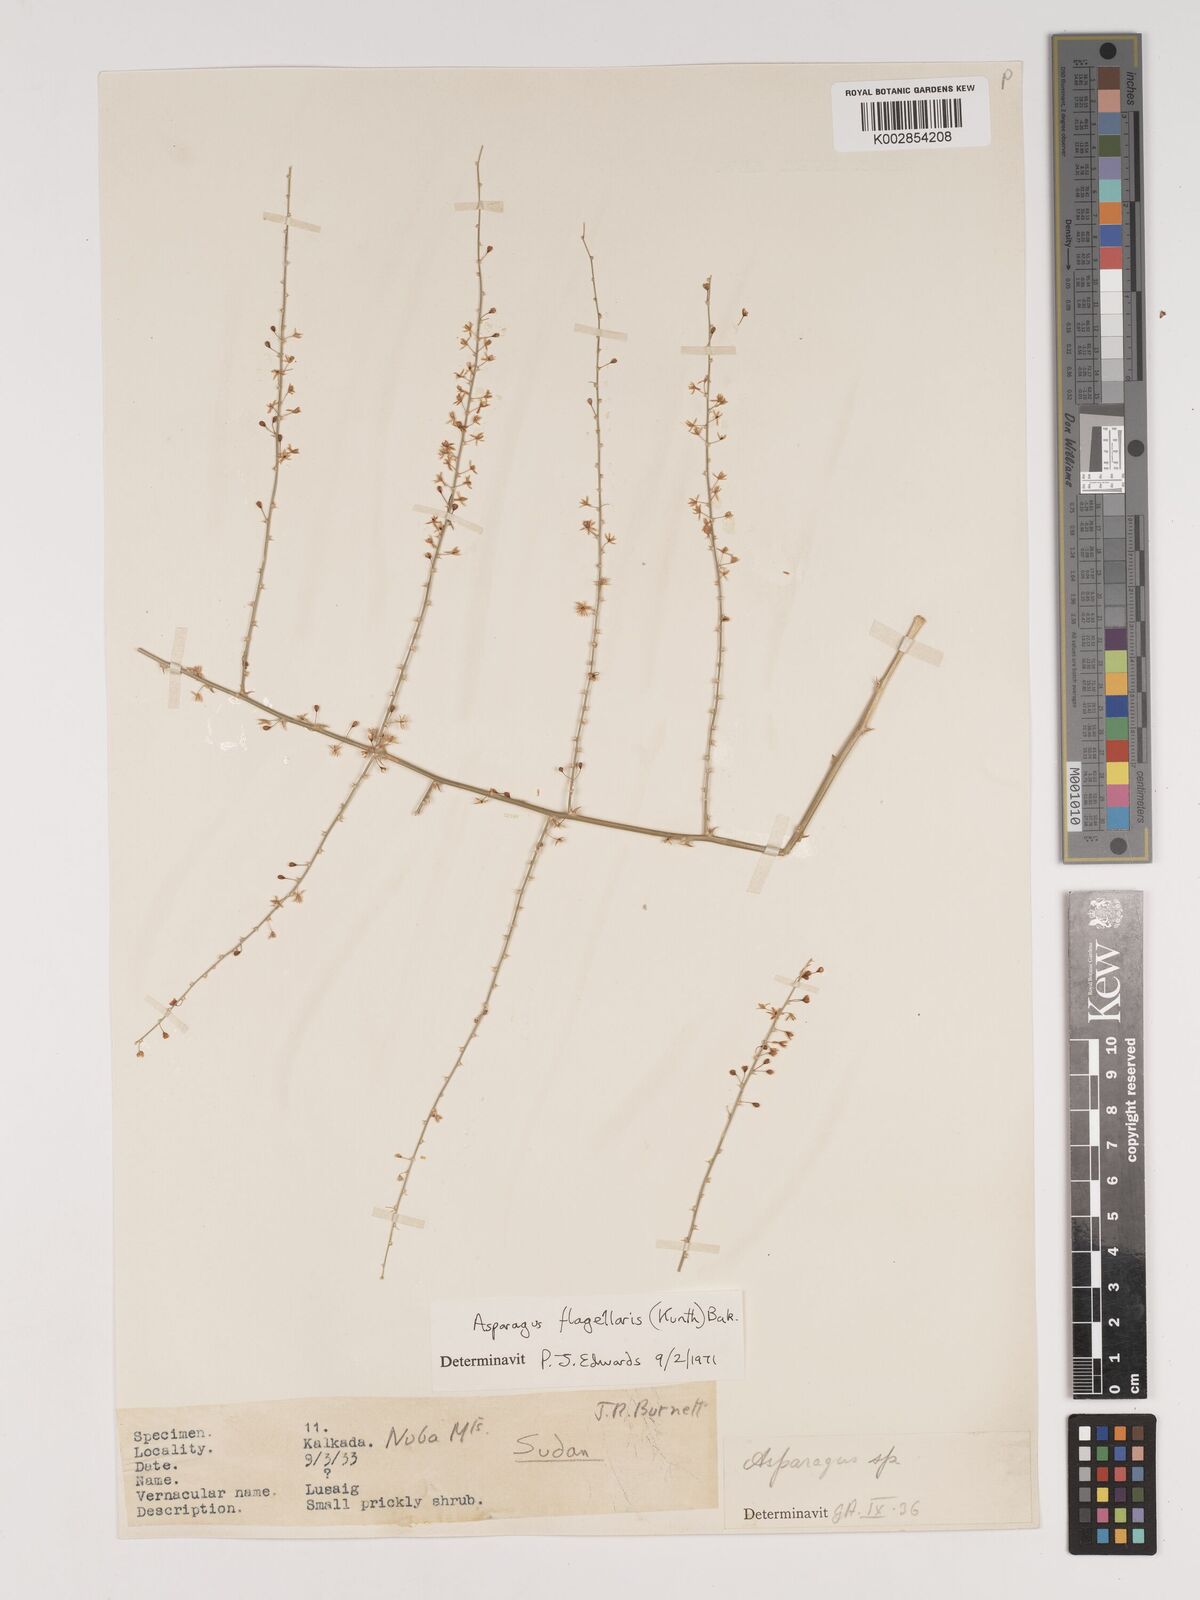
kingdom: Plantae
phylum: Tracheophyta
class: Liliopsida
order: Asparagales
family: Asparagaceae
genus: Asparagus
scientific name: Asparagus flagellaris
